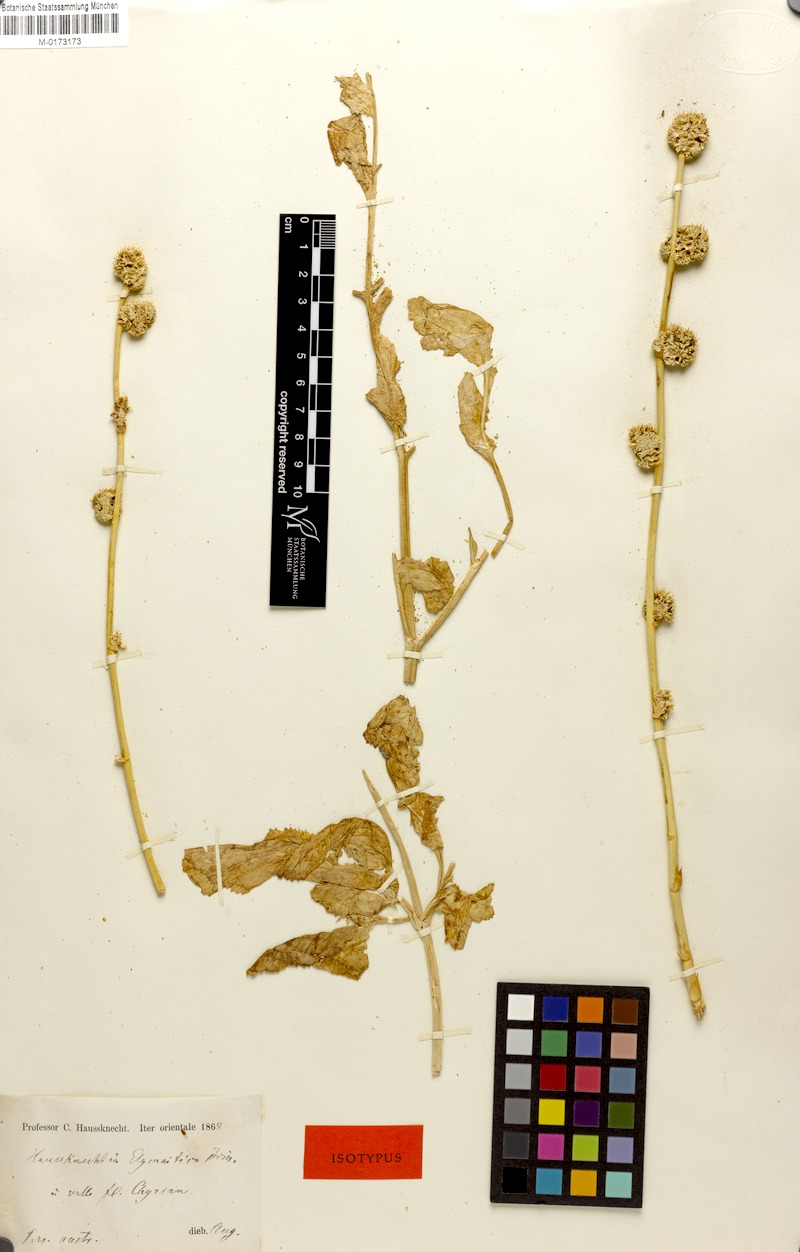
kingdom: Plantae
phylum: Tracheophyta
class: Magnoliopsida
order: Apiales
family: Apiaceae
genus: Haussknechtia
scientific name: Haussknechtia elymaitica
